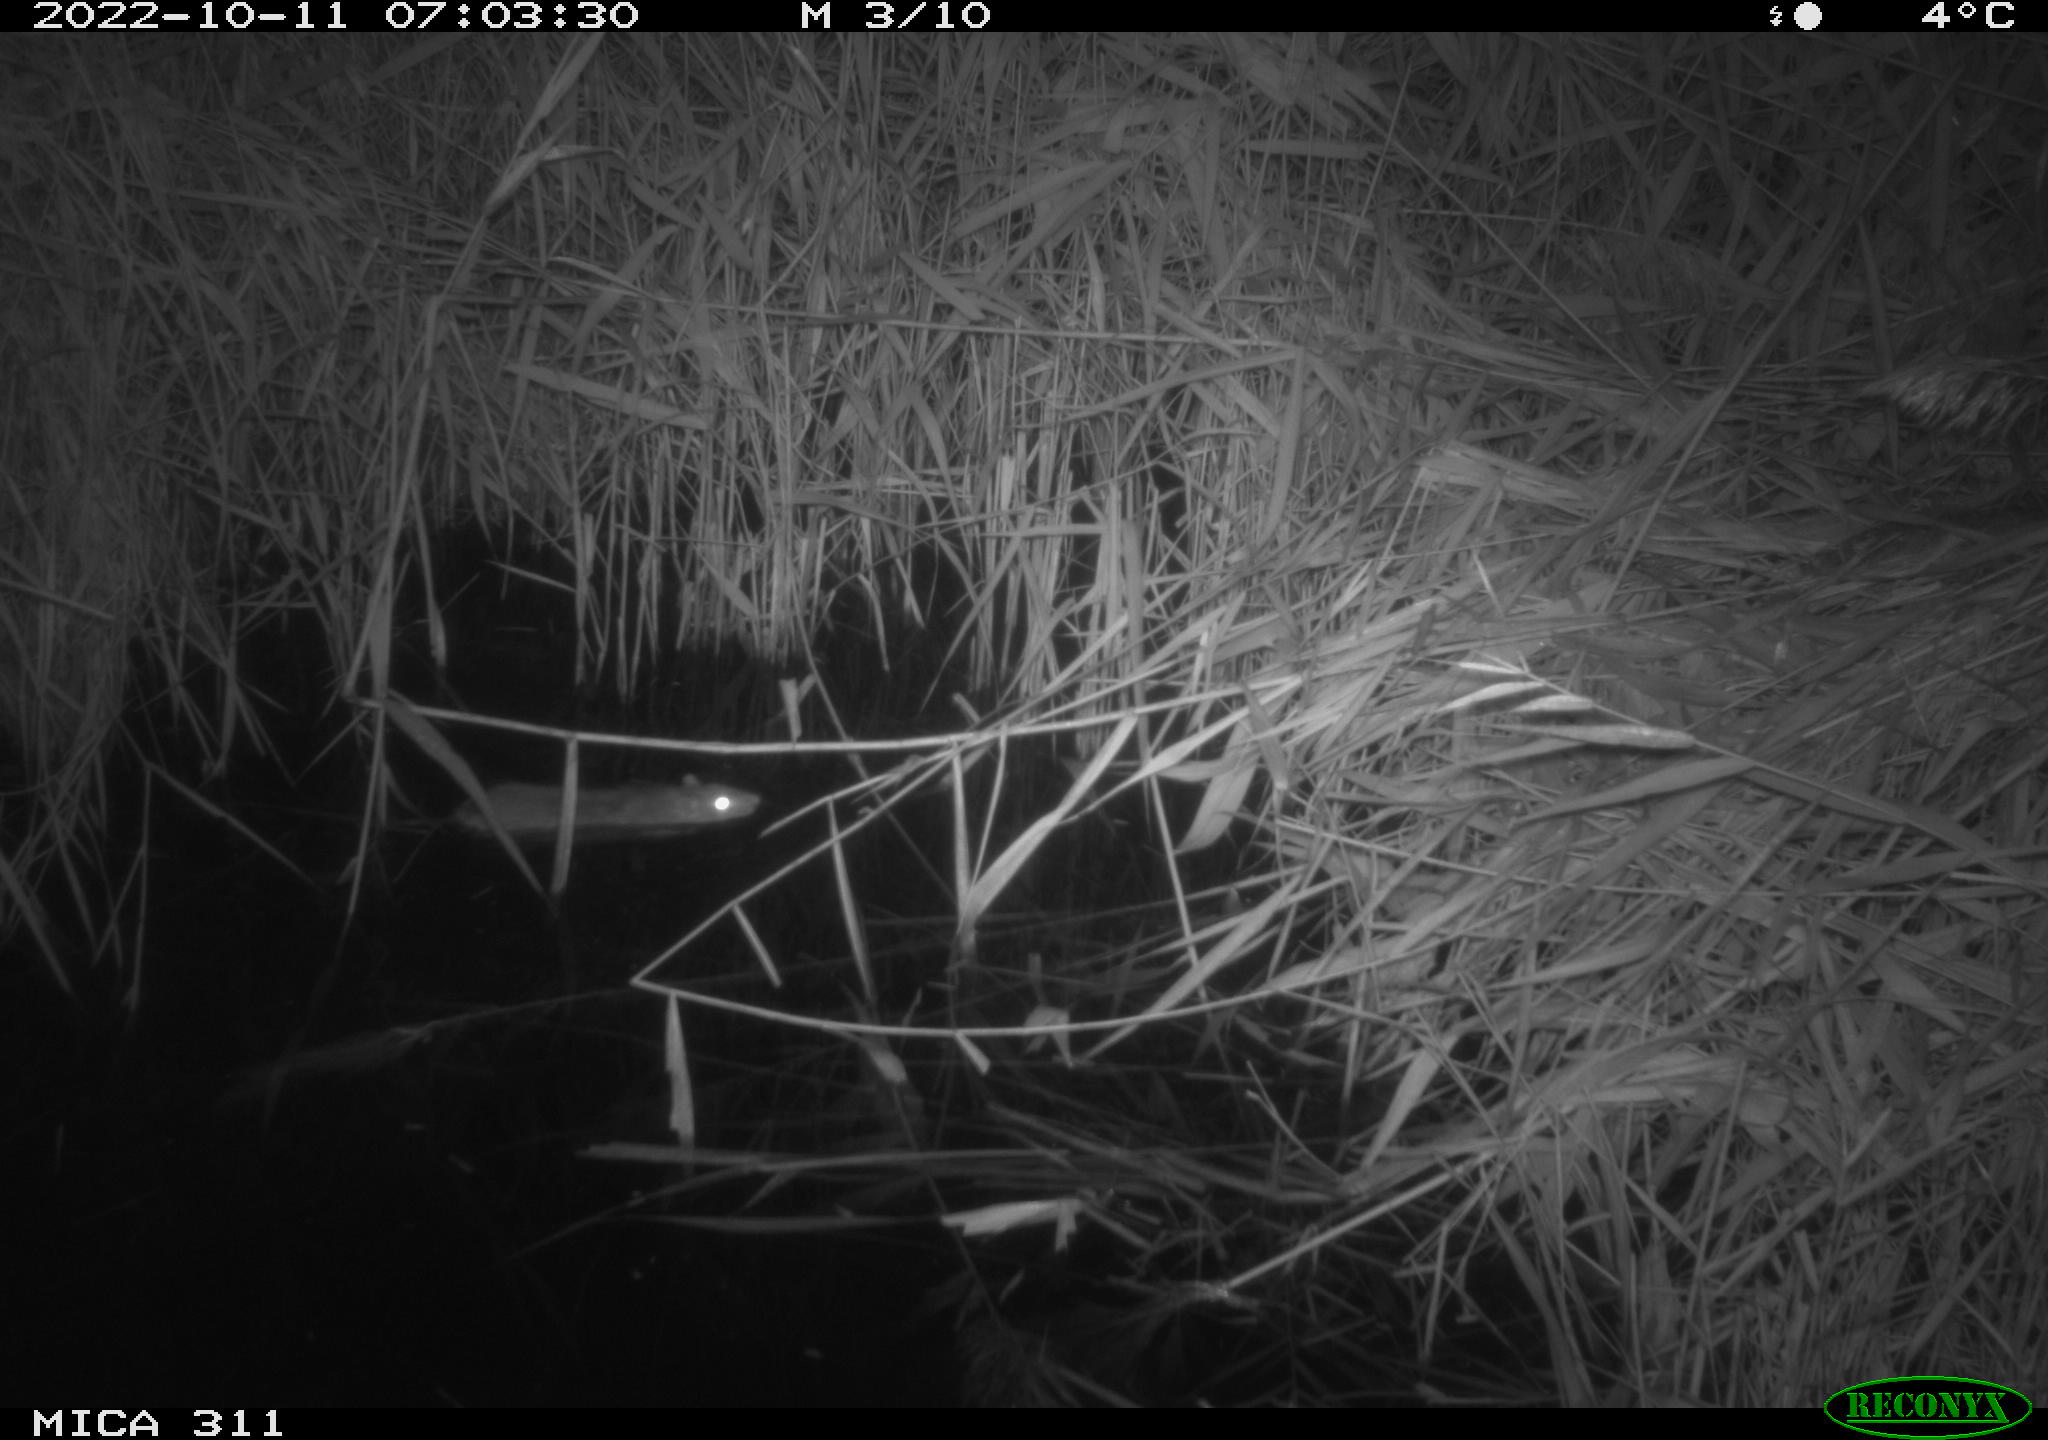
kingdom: Animalia
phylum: Chordata
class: Mammalia
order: Rodentia
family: Muridae
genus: Rattus
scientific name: Rattus norvegicus
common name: Brown rat
